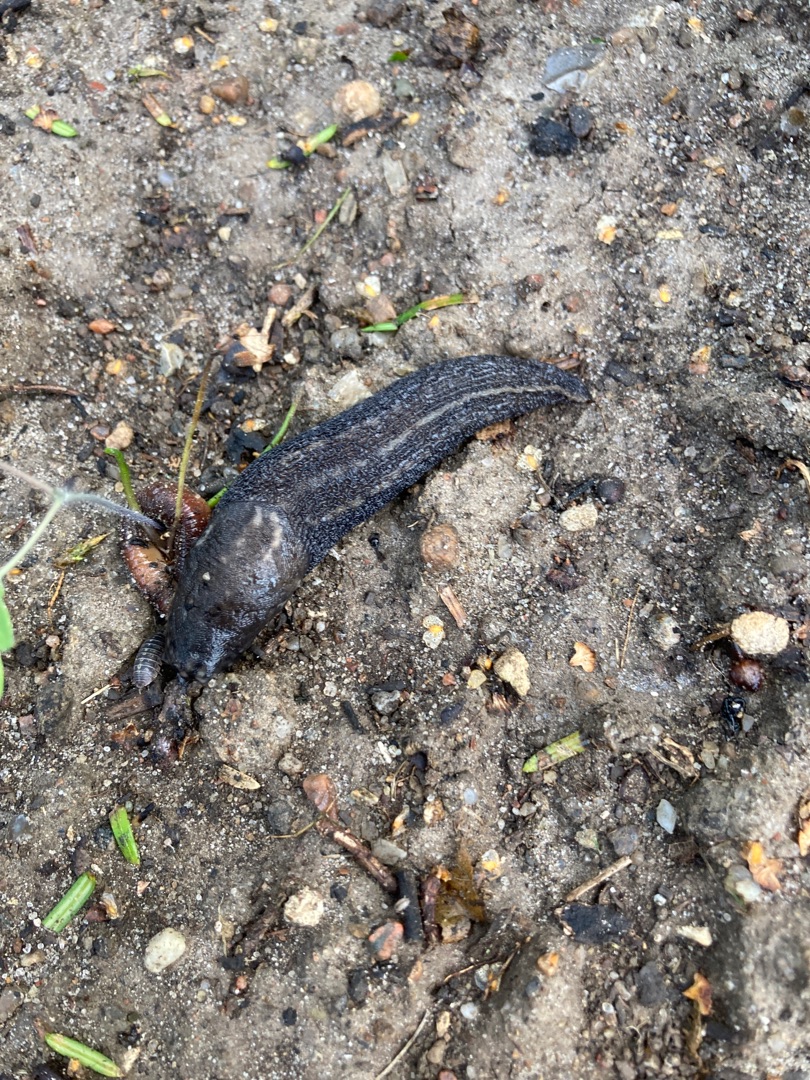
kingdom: Animalia
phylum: Mollusca
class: Gastropoda
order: Stylommatophora
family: Limacidae
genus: Limax
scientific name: Limax maximus
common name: Pantersnegl
